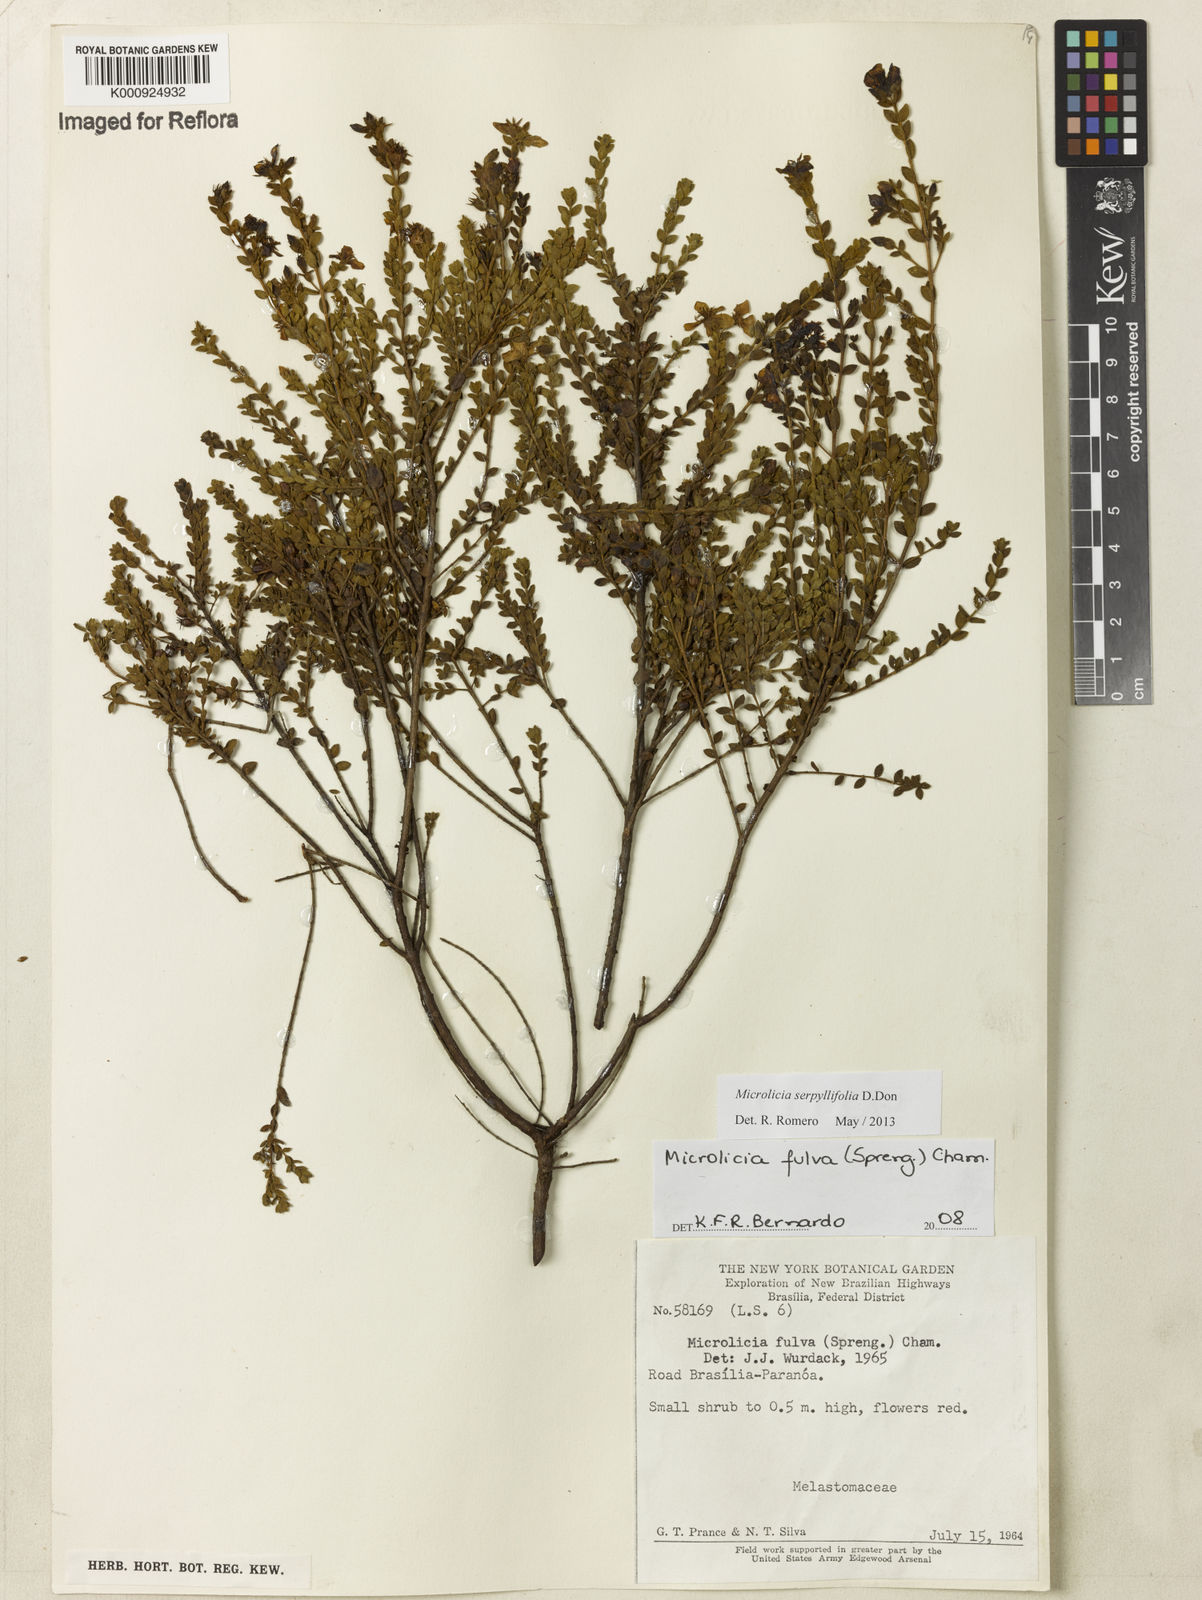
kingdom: Plantae
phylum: Tracheophyta
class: Magnoliopsida
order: Myrtales
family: Melastomataceae
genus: Microlicia
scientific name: Microlicia fulva
